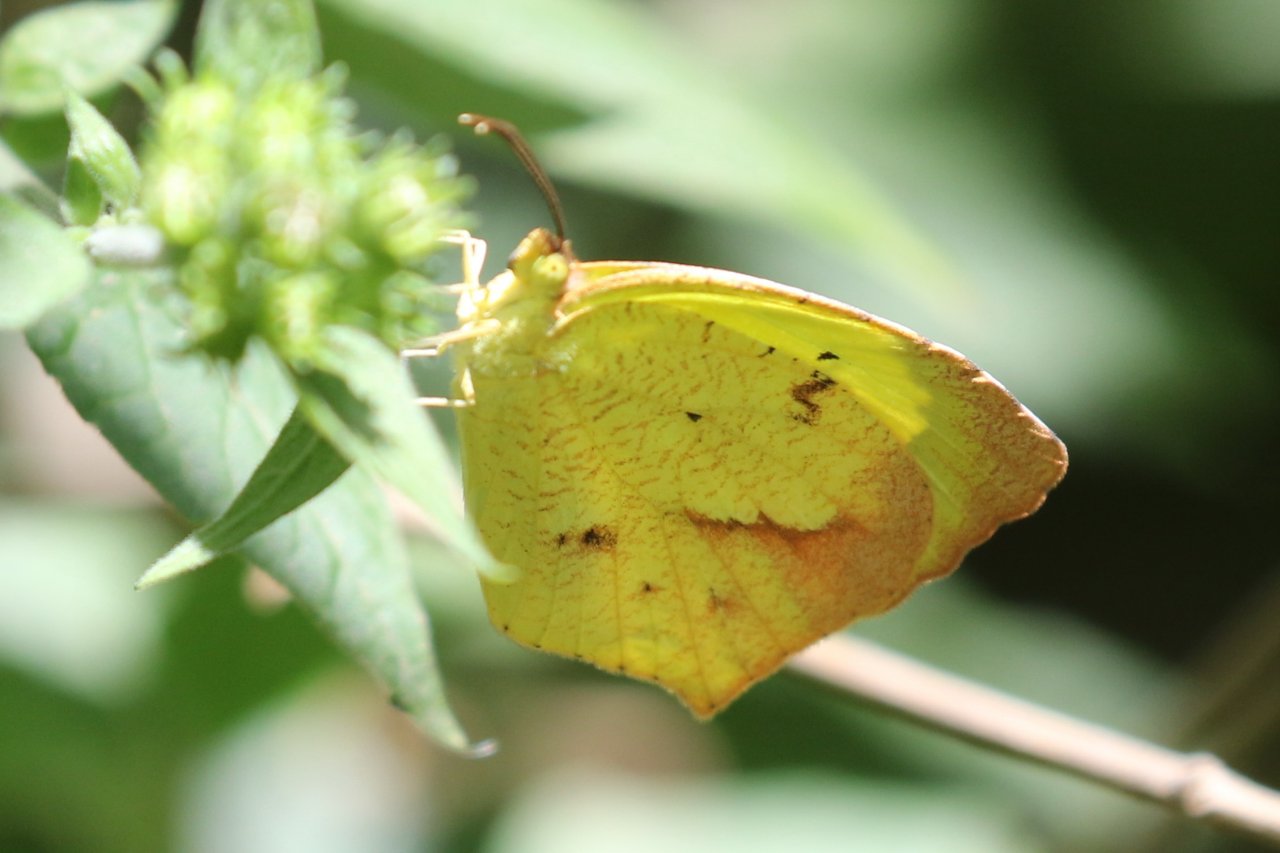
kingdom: Animalia
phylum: Arthropoda
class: Insecta
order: Lepidoptera
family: Pieridae
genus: Eurema
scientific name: Eurema boisduvaliana
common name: Boisduval's Yellow
